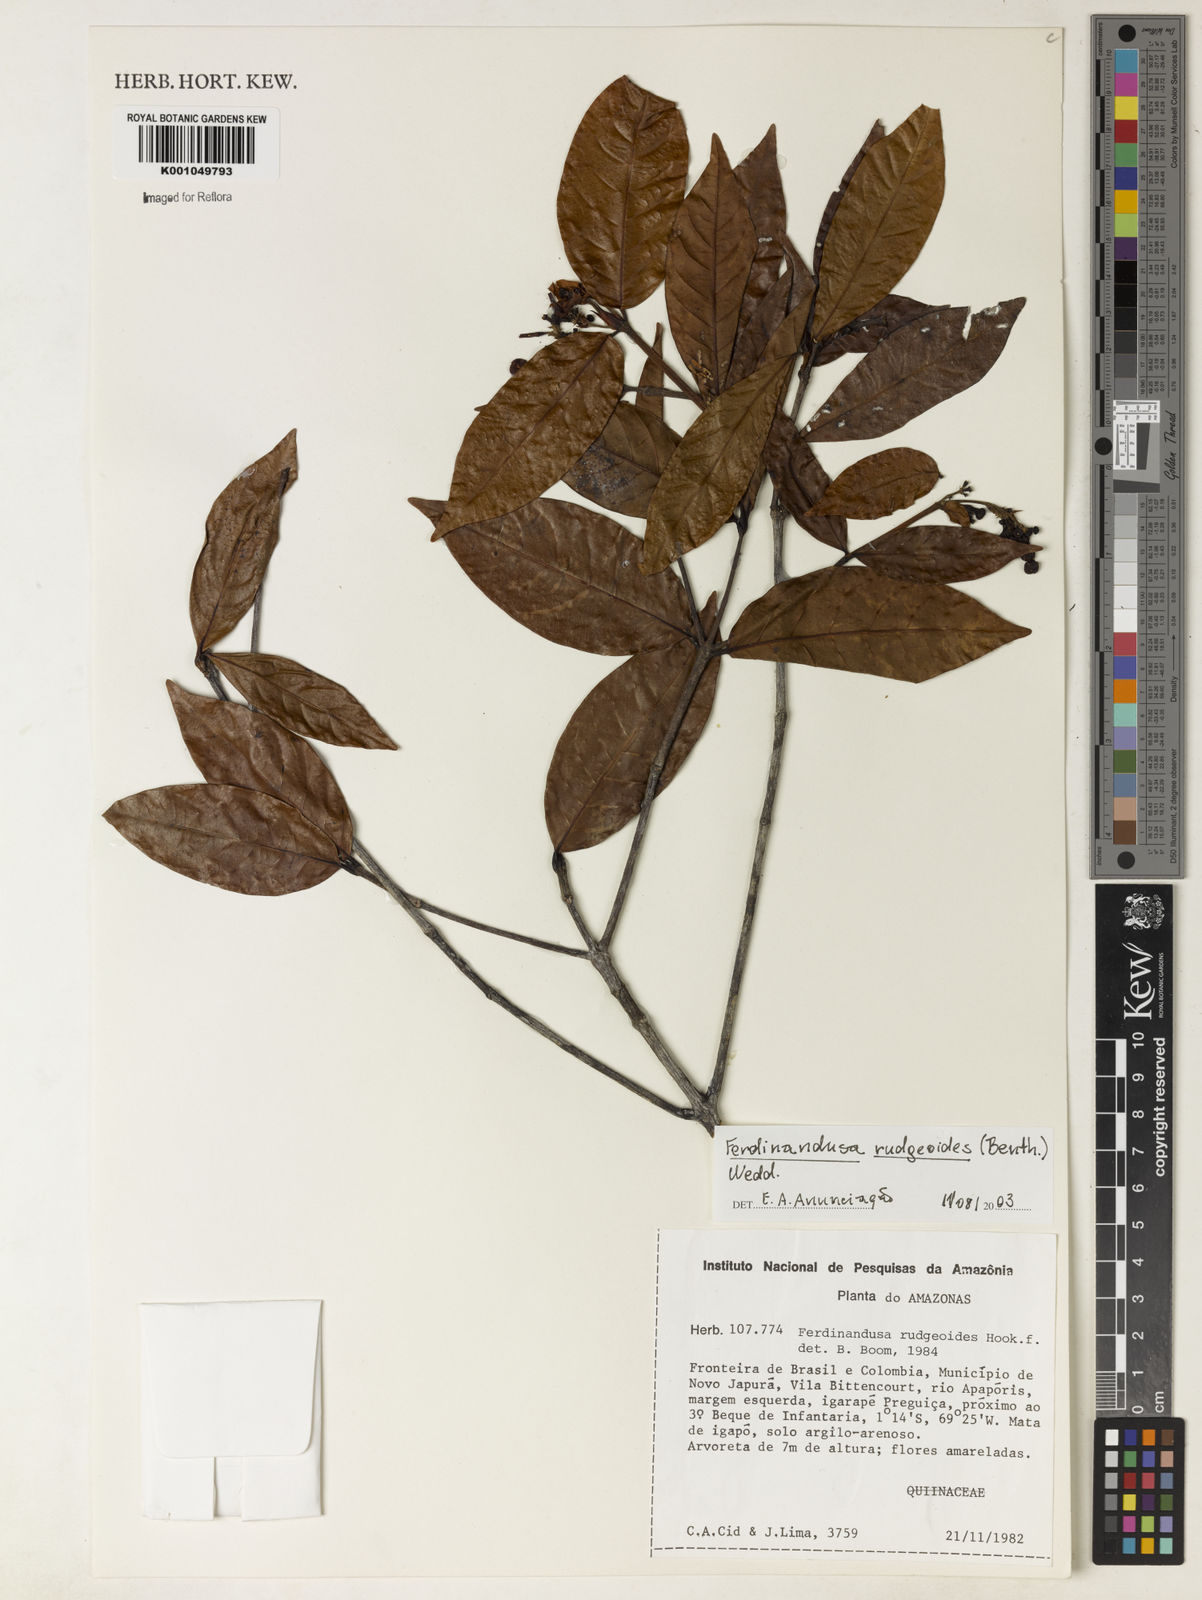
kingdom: Plantae
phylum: Tracheophyta
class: Magnoliopsida
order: Gentianales
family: Rubiaceae
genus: Ferdinandusa
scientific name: Ferdinandusa rudgeoides
